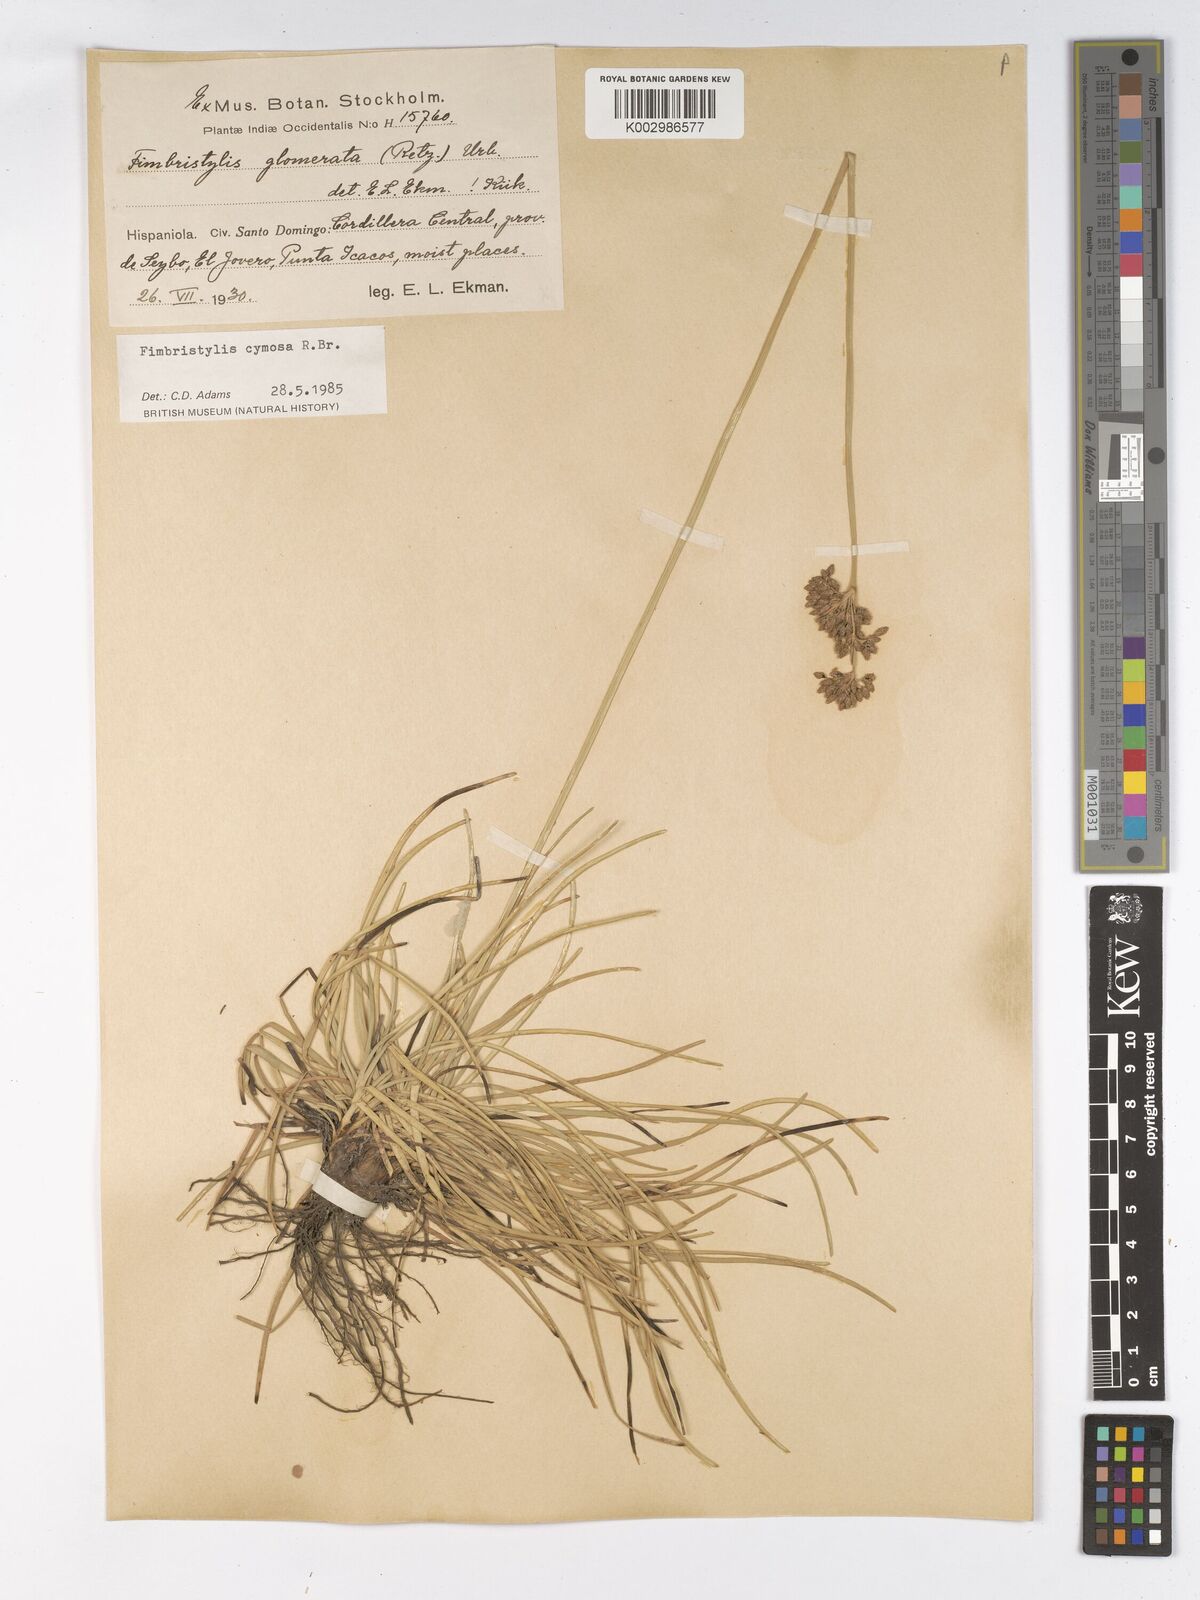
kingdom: Plantae
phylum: Tracheophyta
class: Liliopsida
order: Poales
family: Cyperaceae
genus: Fimbristylis
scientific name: Fimbristylis
